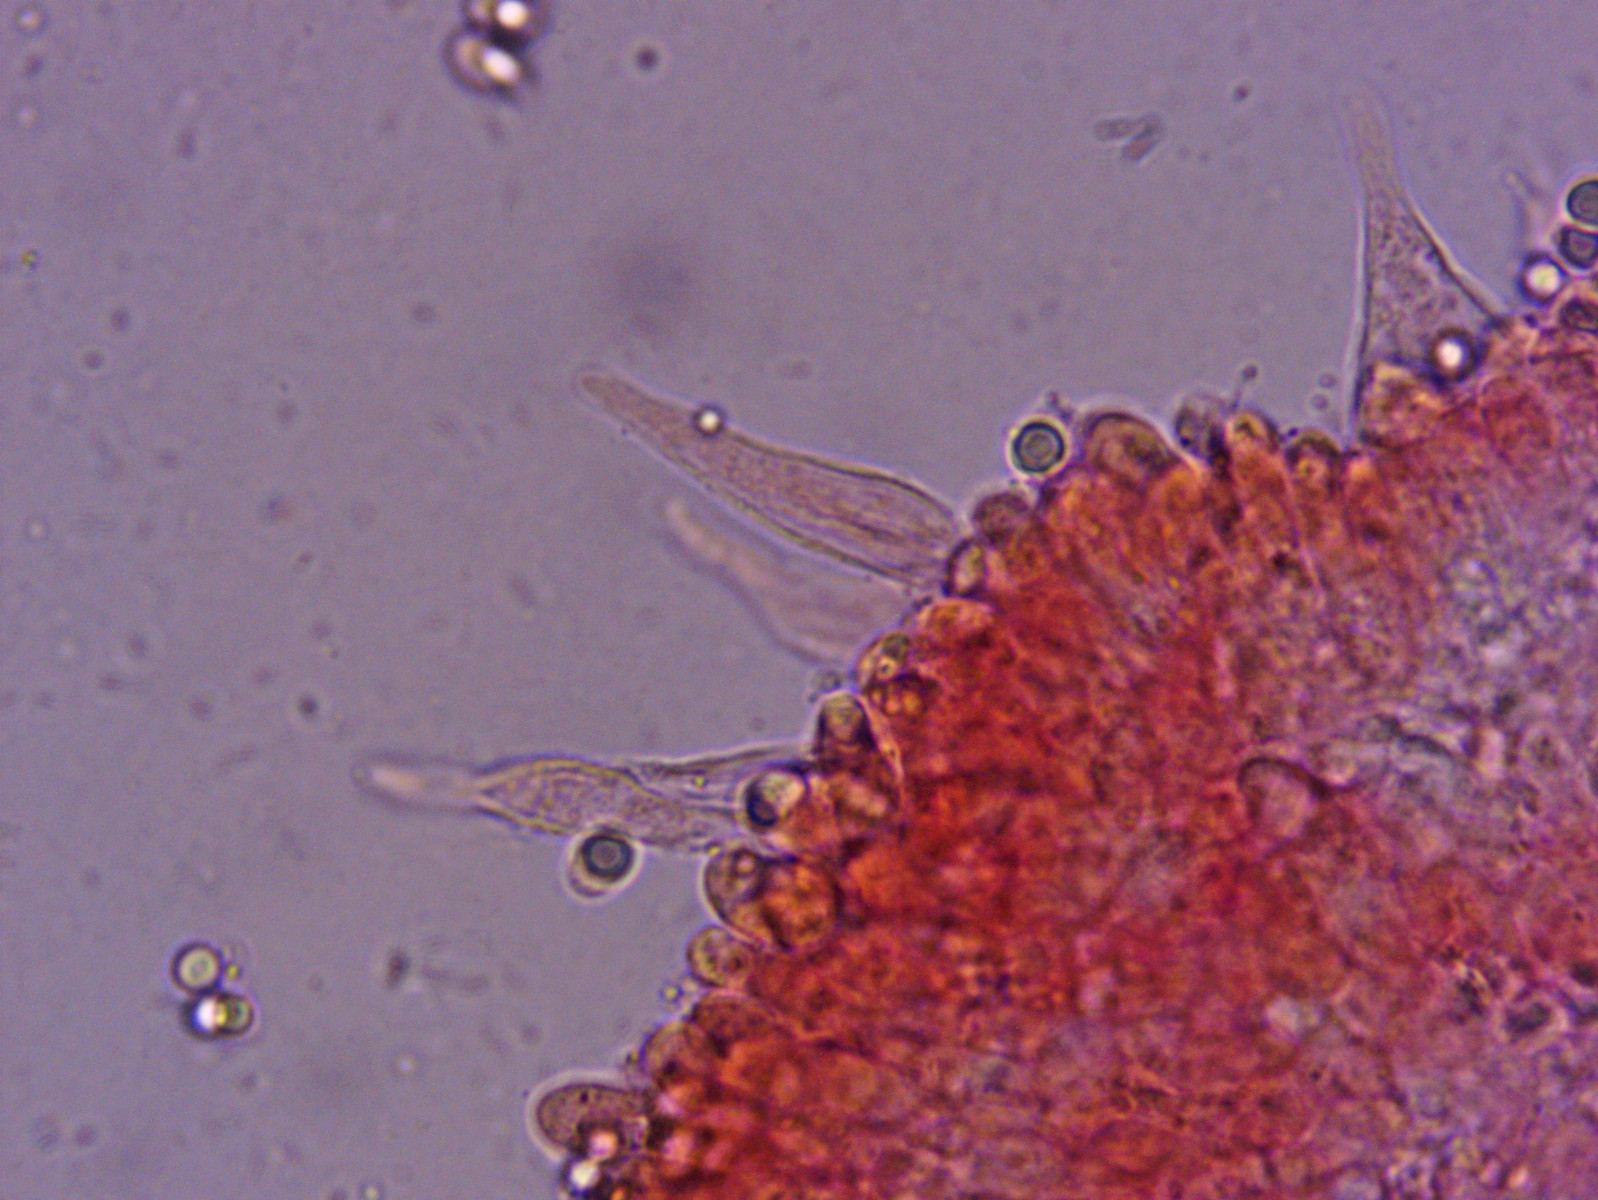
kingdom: Fungi
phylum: Basidiomycota
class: Agaricomycetes
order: Agaricales
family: Mycenaceae
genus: Atheniella
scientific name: Atheniella flavoalba
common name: gulhvid huesvamp
